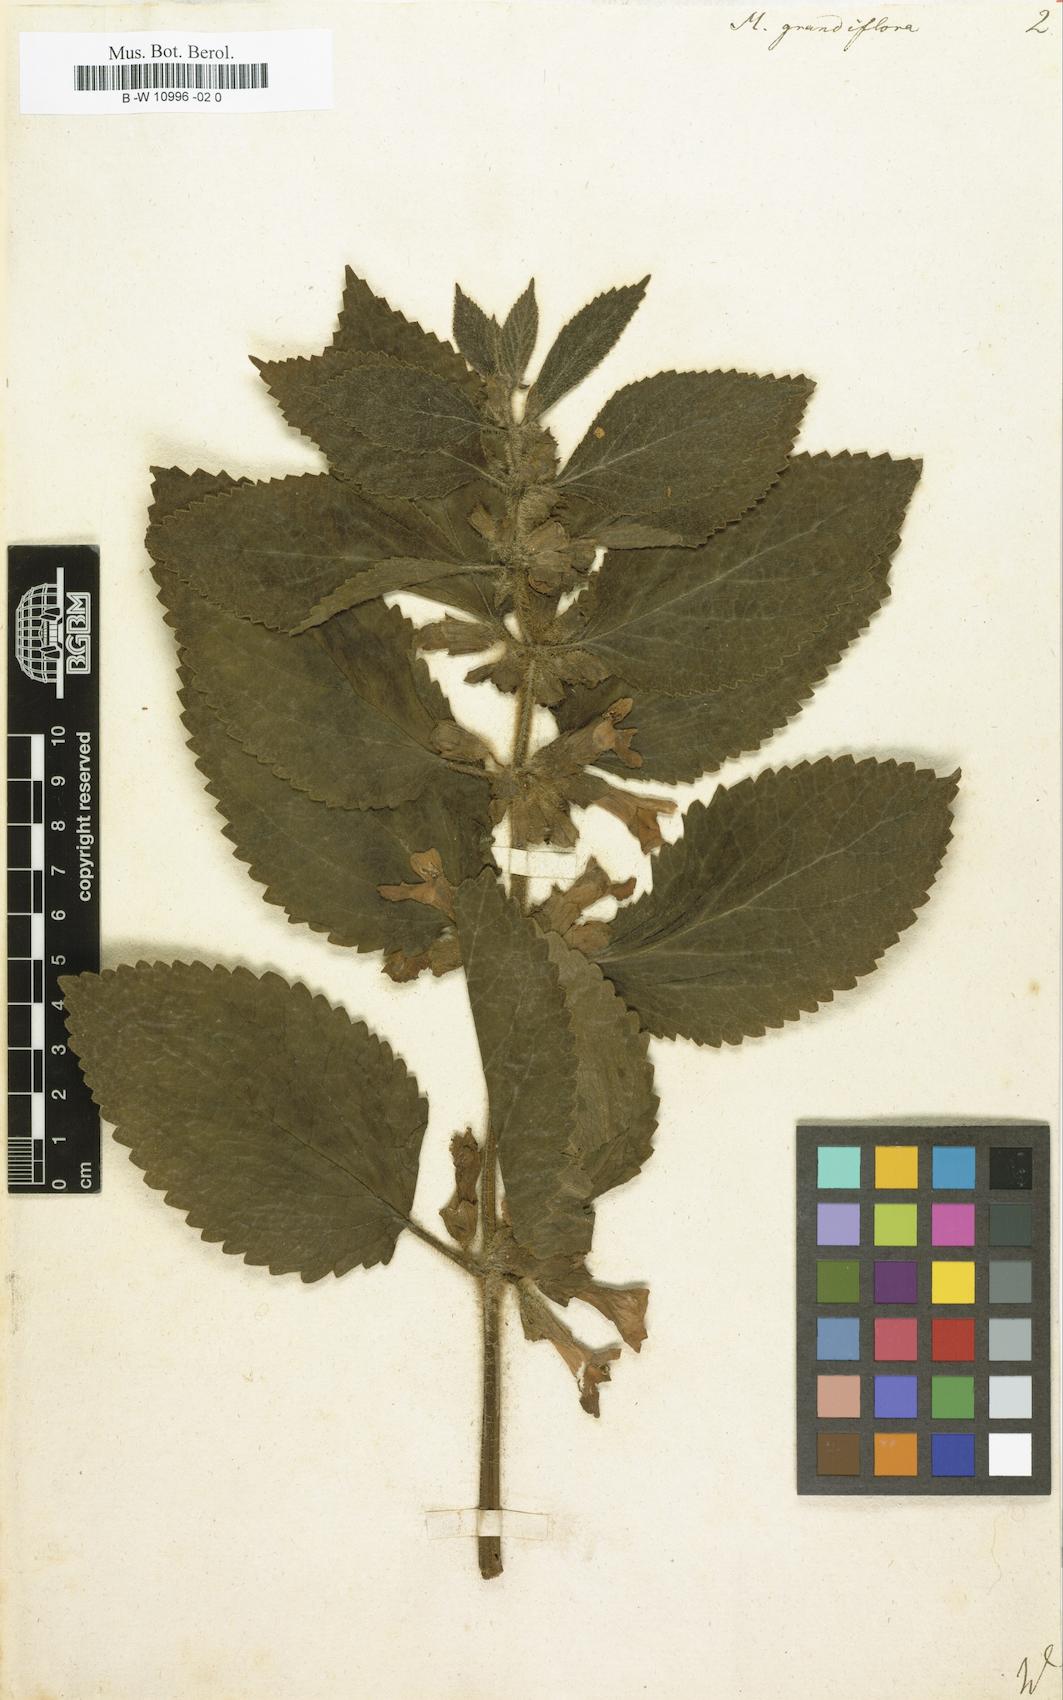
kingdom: Plantae
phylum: Tracheophyta
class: Magnoliopsida
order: Lamiales
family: Lamiaceae
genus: Melittis
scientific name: Melittis melissophyllum
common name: Bastard balm
